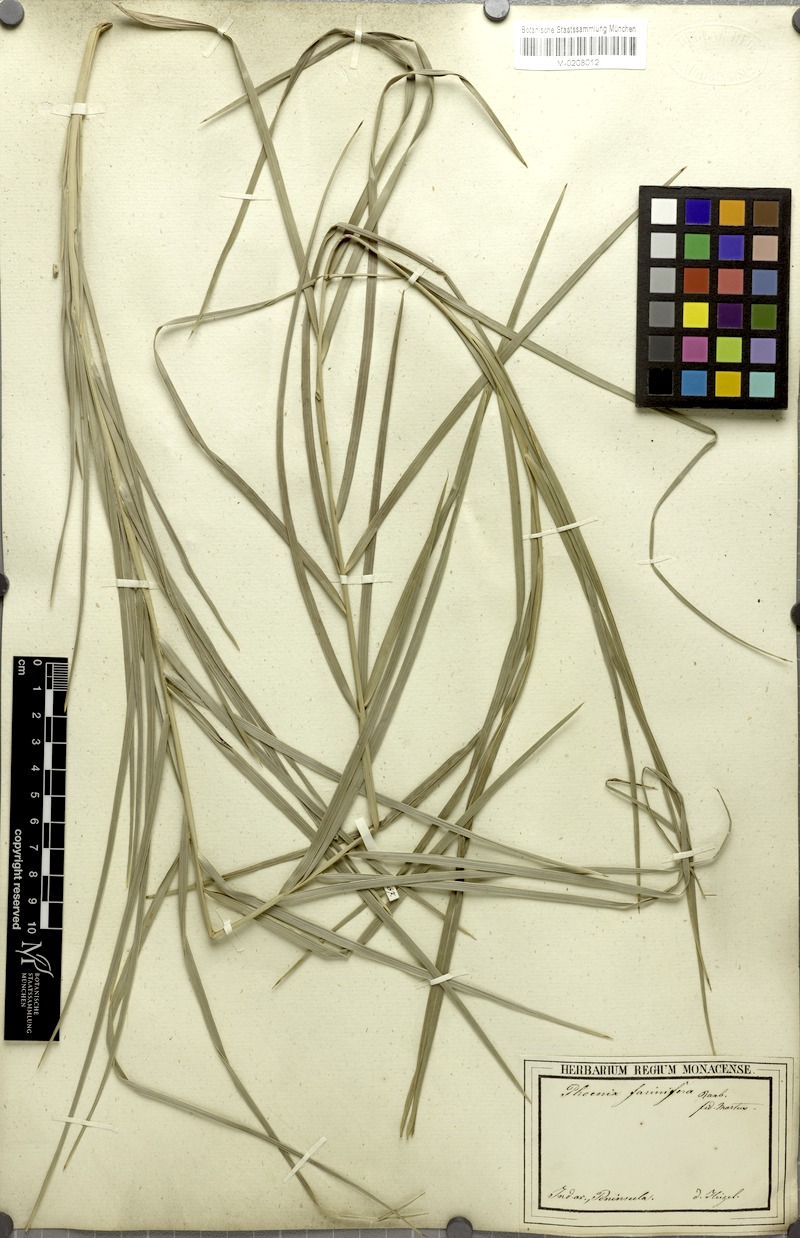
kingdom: Plantae
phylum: Tracheophyta
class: Liliopsida
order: Arecales
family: Arecaceae
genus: Phoenix
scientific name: Phoenix pusilla
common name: Flour palm
